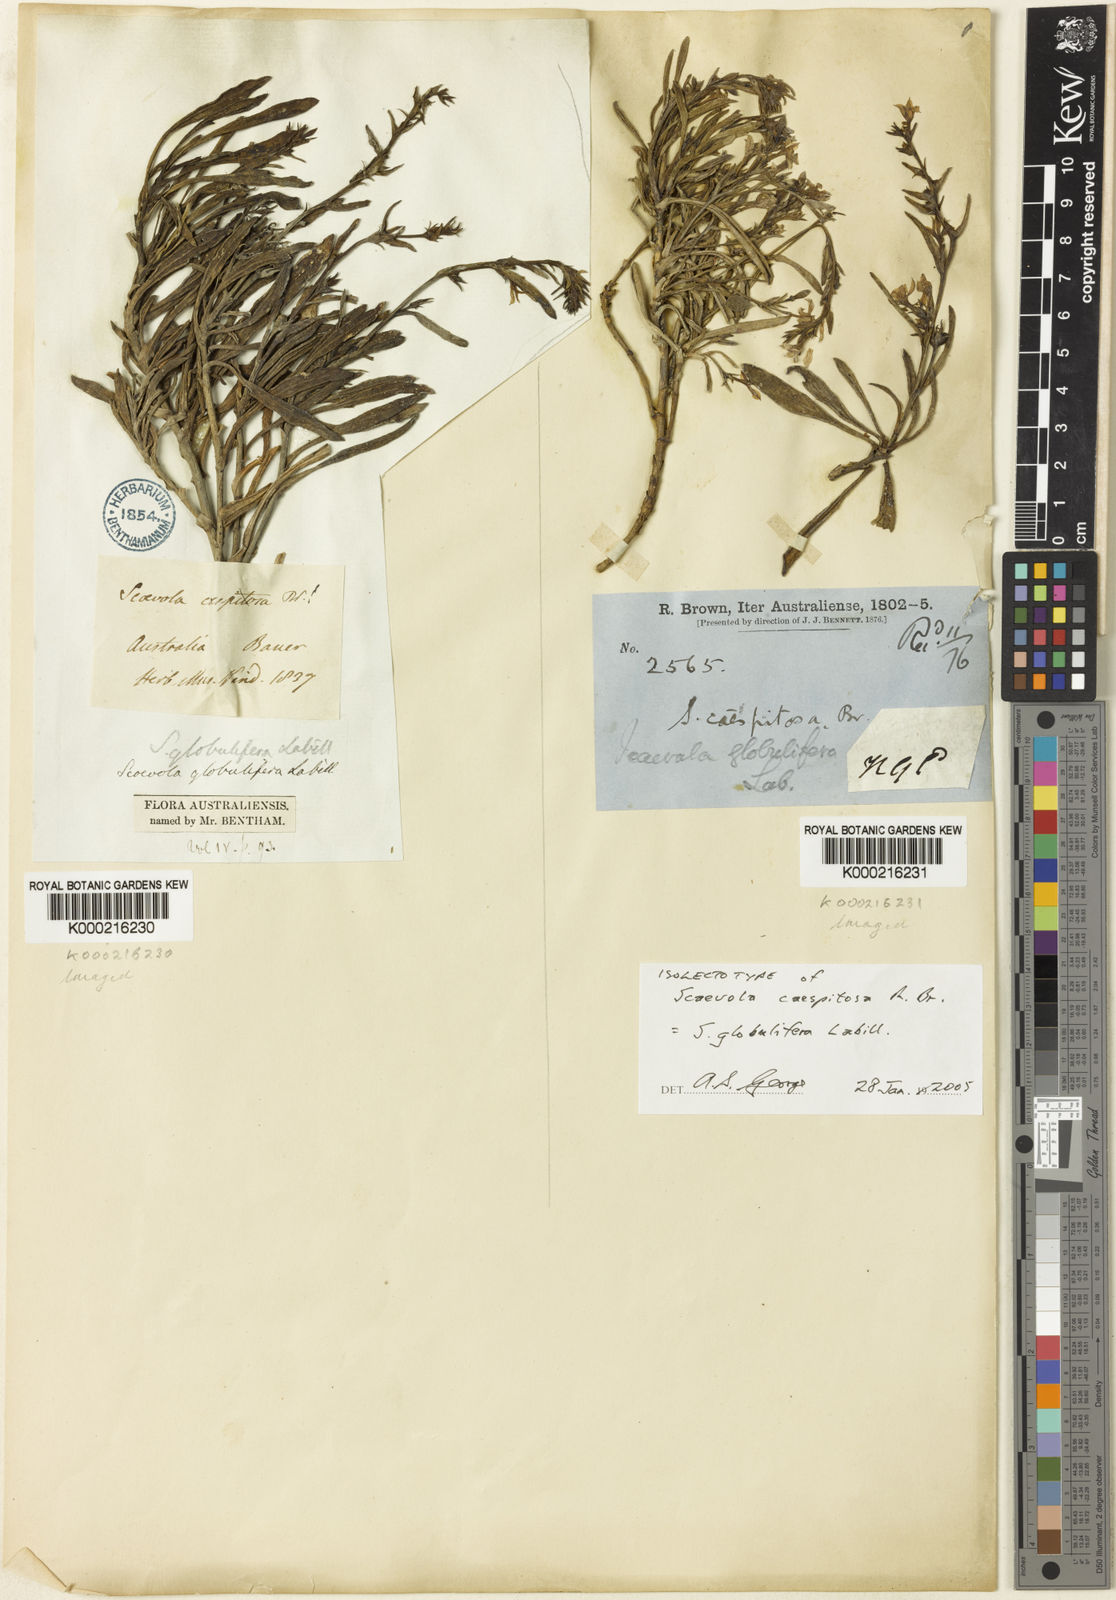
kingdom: Plantae
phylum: Tracheophyta
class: Magnoliopsida
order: Asterales
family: Goodeniaceae
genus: Scaevola
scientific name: Scaevola globulifera
